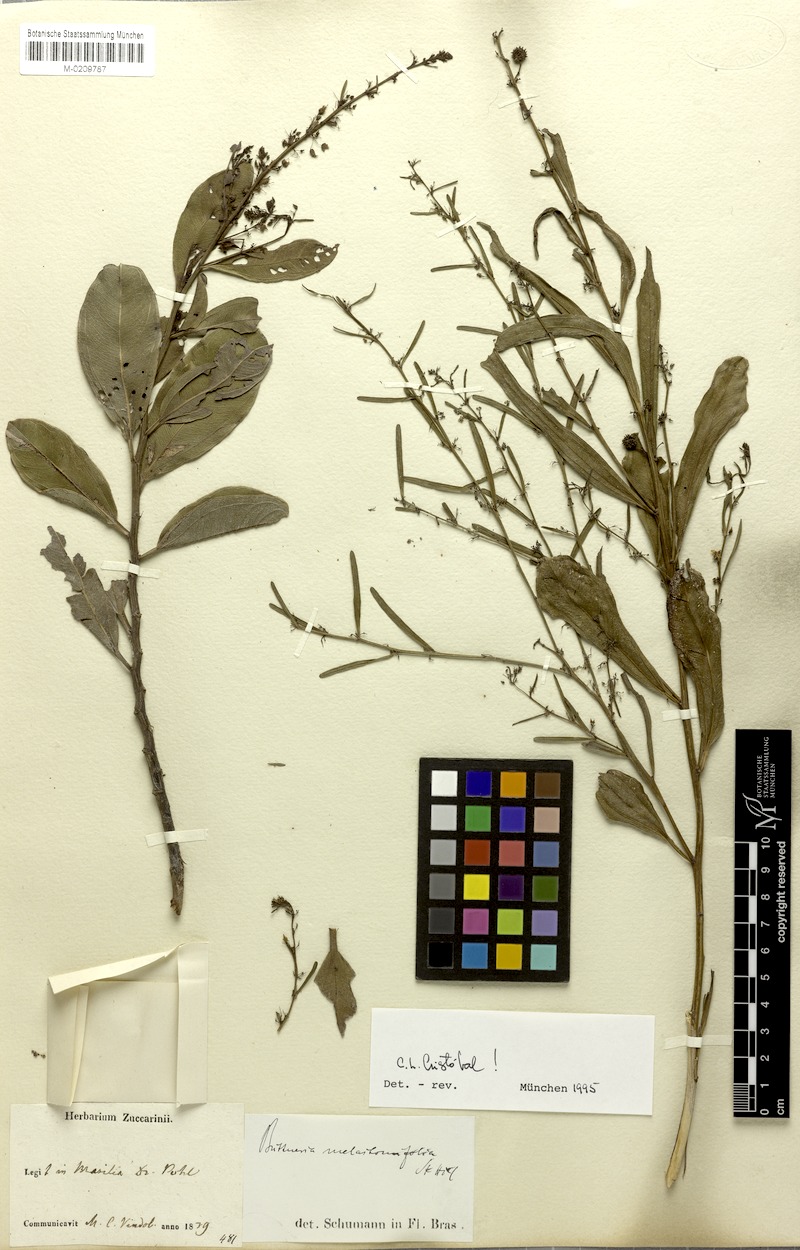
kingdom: Plantae
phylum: Tracheophyta
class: Magnoliopsida
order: Malvales
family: Malvaceae
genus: Byttneria
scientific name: Byttneria melastomifolia
